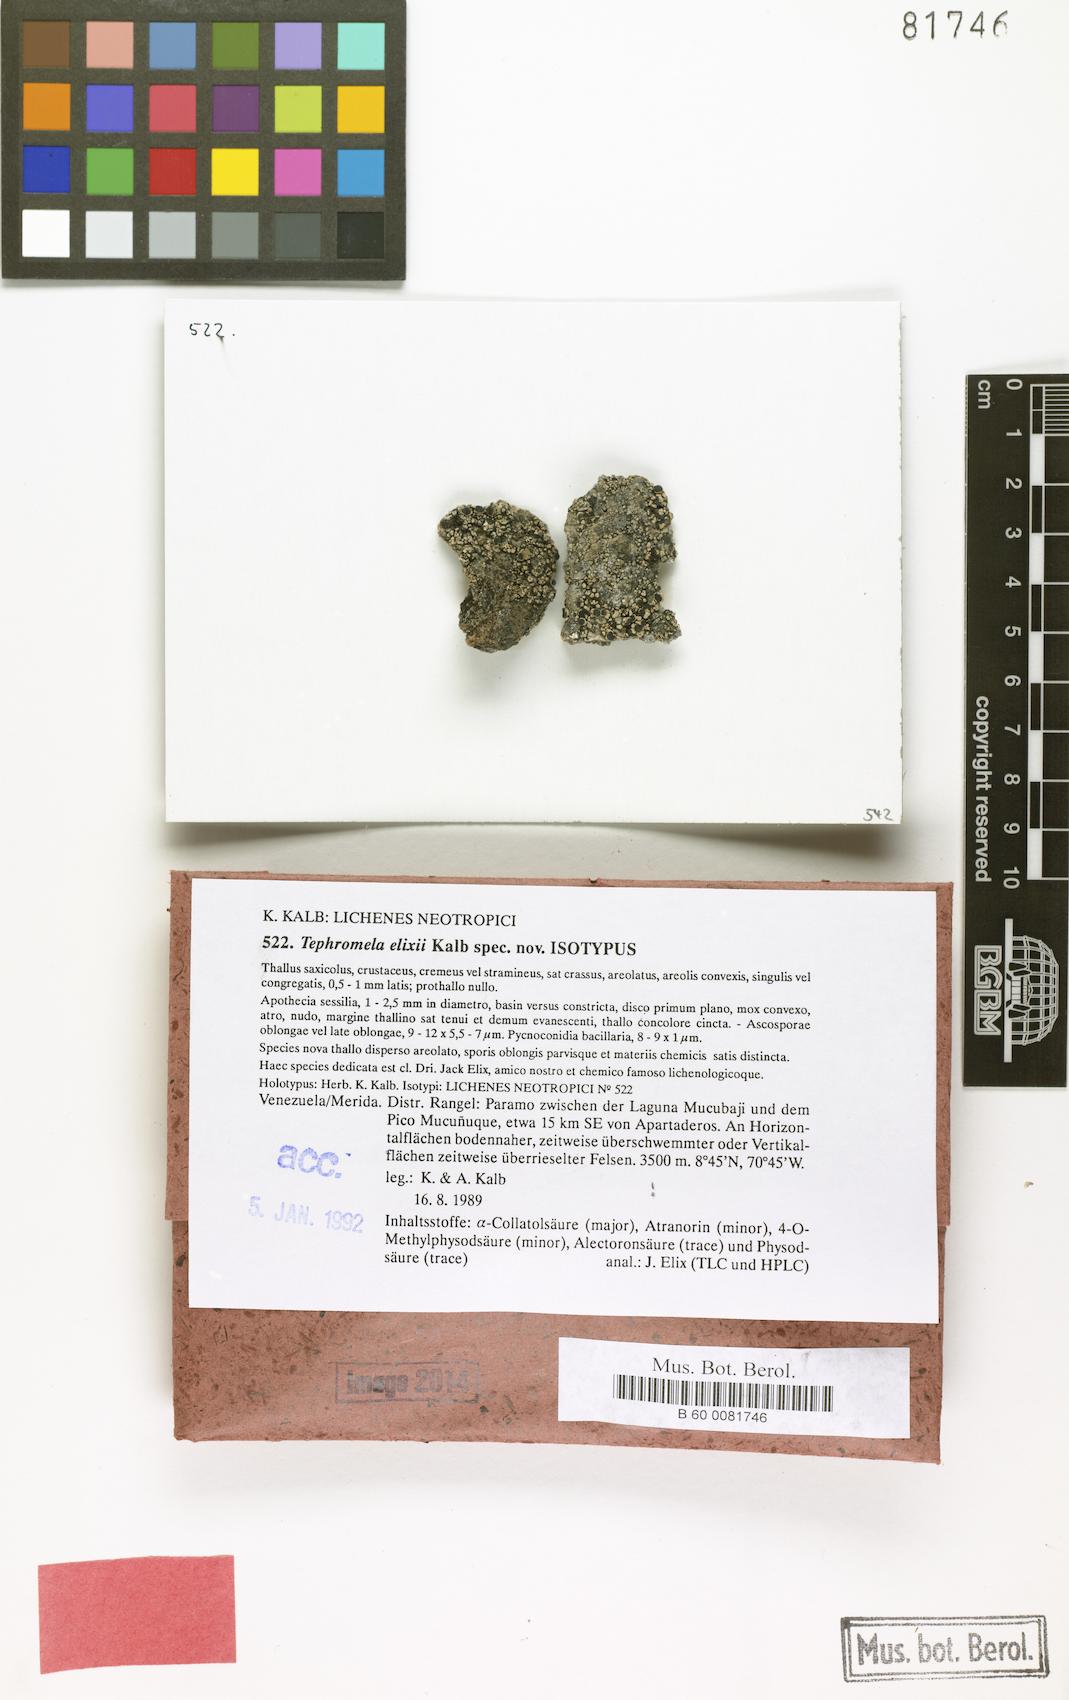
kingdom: Fungi
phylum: Ascomycota
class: Lecanoromycetes
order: Lecanorales
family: Tephromelataceae
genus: Tephromela
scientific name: Tephromela elixii
